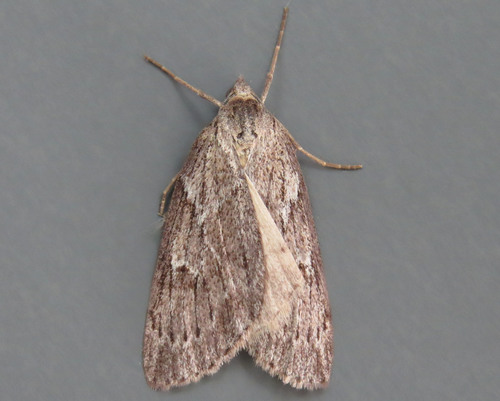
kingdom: Animalia
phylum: Arthropoda
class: Insecta
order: Lepidoptera
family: Geometridae
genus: Pachycnemia
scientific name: Pachycnemia hippocastanaria
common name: Horse chestnut
